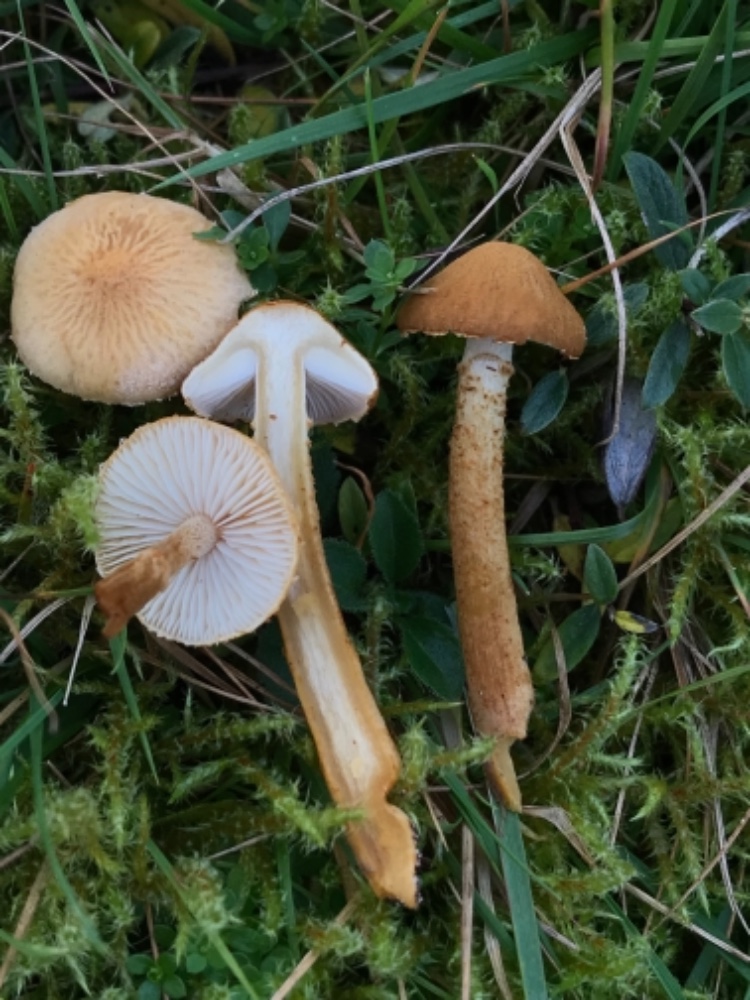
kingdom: Fungi
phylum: Basidiomycota
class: Agaricomycetes
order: Agaricales
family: Tricholomataceae
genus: Cystoderma
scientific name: Cystoderma amianthinum
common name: okkergul grynhat
